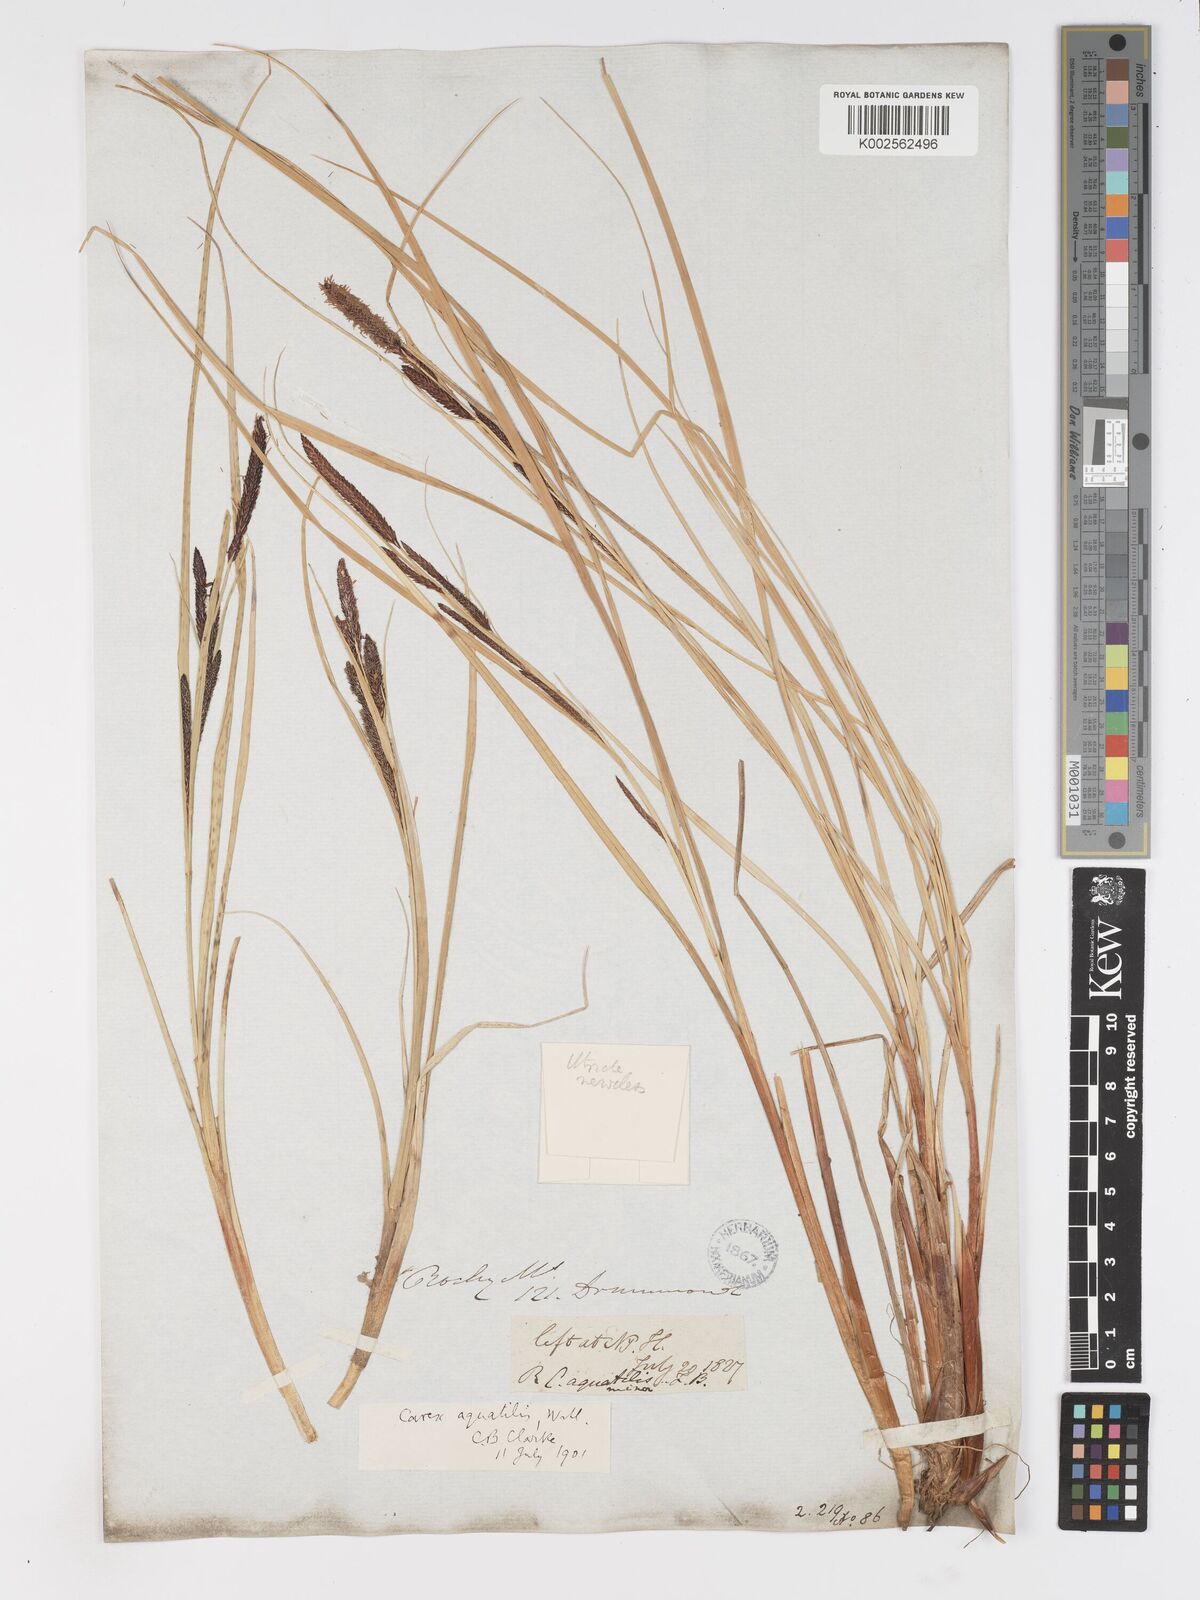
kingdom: Plantae
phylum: Tracheophyta
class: Liliopsida
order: Poales
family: Cyperaceae
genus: Carex
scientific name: Carex
